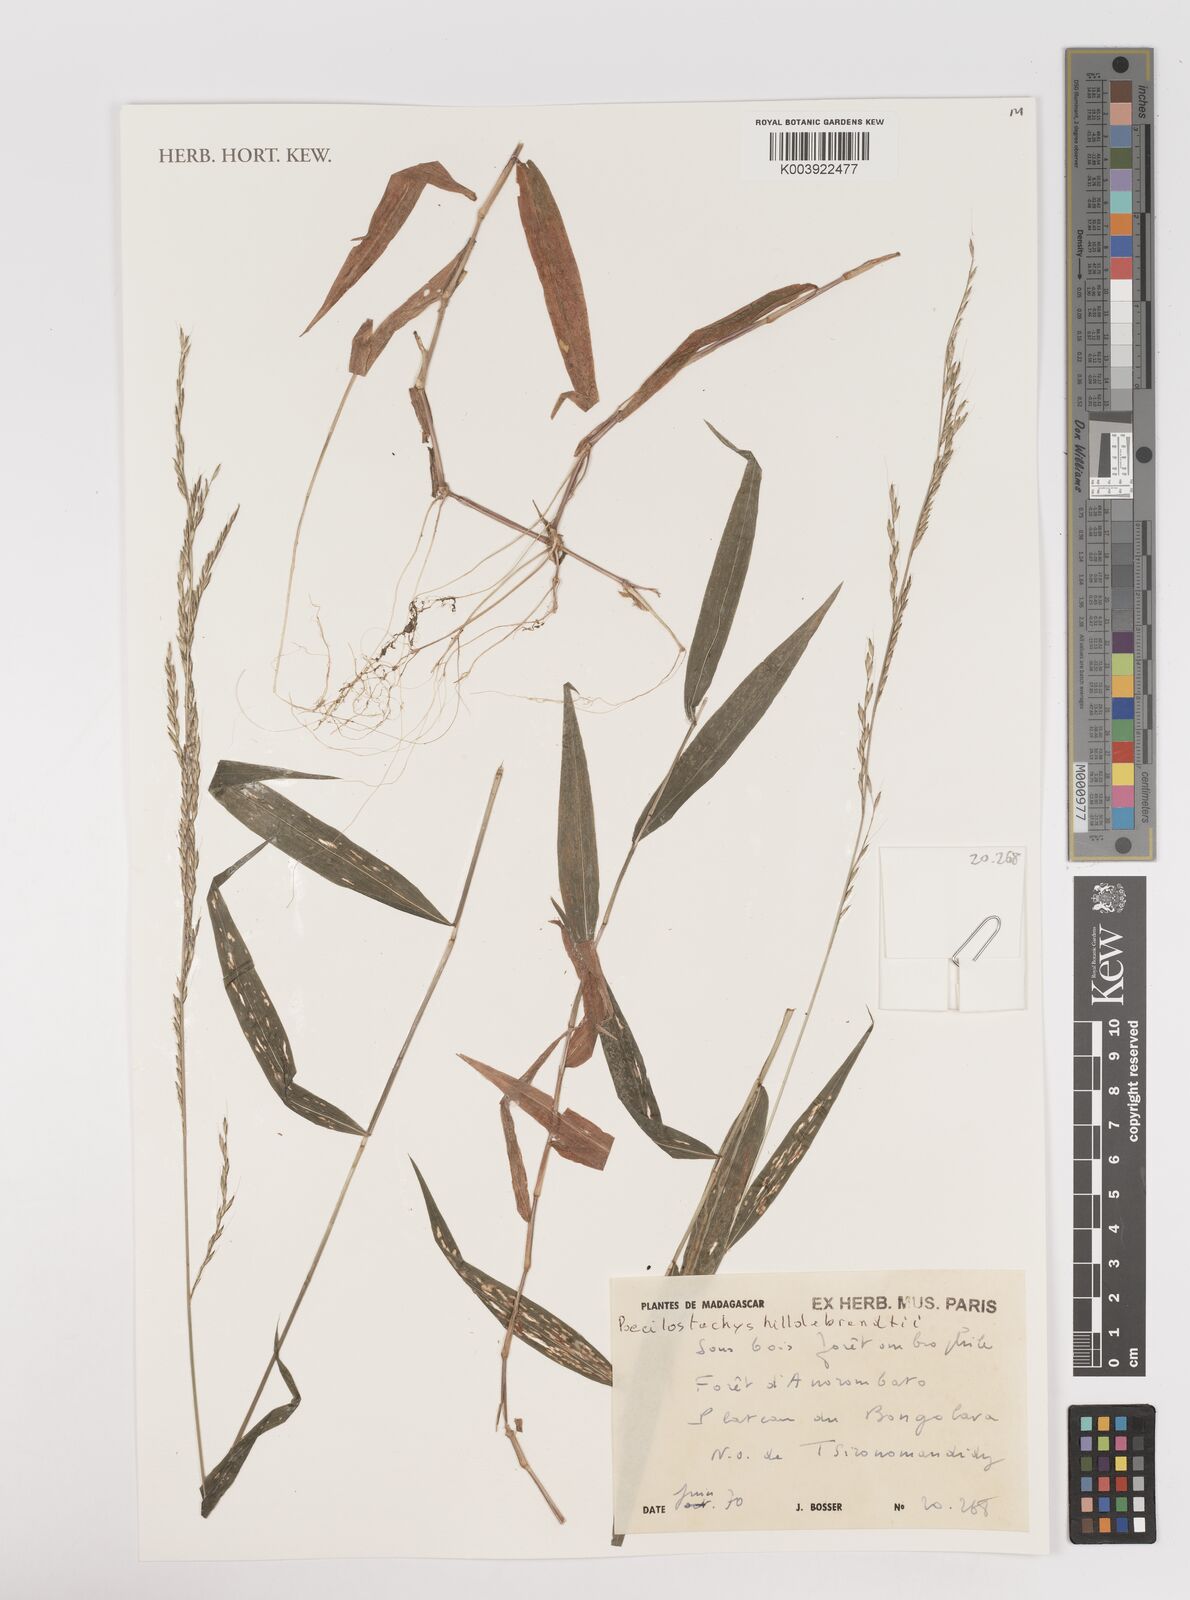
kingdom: Plantae
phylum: Tracheophyta
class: Liliopsida
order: Poales
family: Poaceae
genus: Poecilostachys
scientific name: Poecilostachys hildebrandtii
